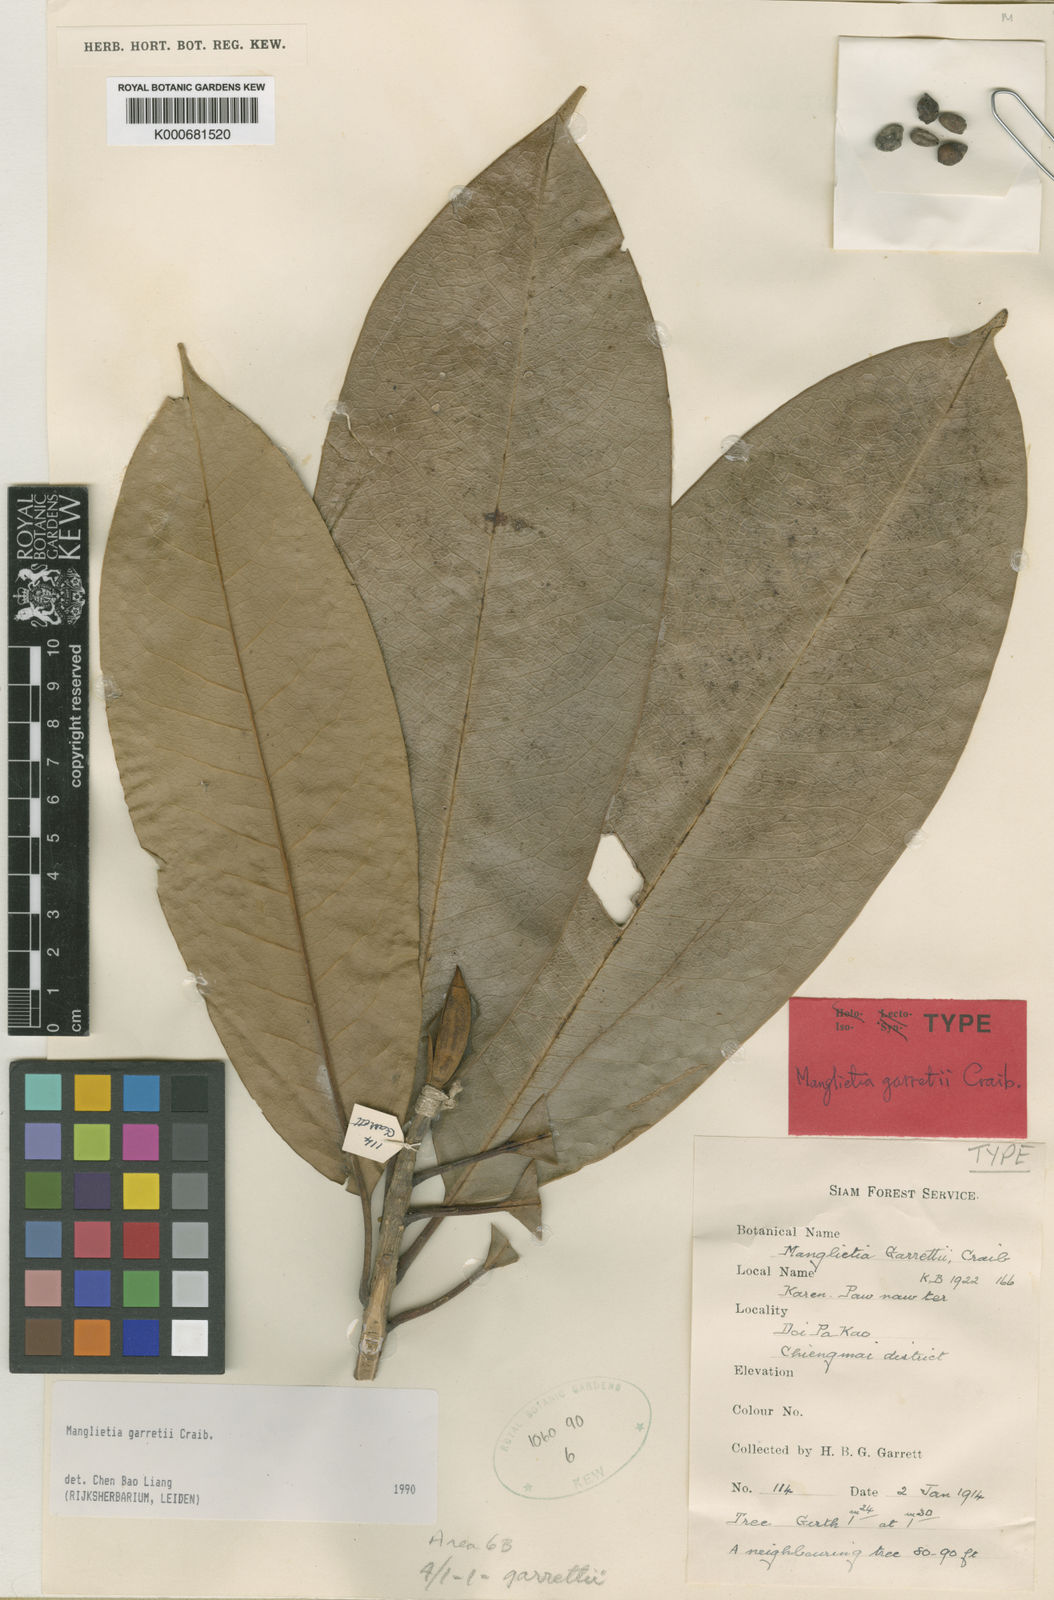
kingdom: Plantae
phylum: Tracheophyta
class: Magnoliopsida
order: Magnoliales
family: Magnoliaceae
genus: Magnolia
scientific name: Magnolia garrettii
